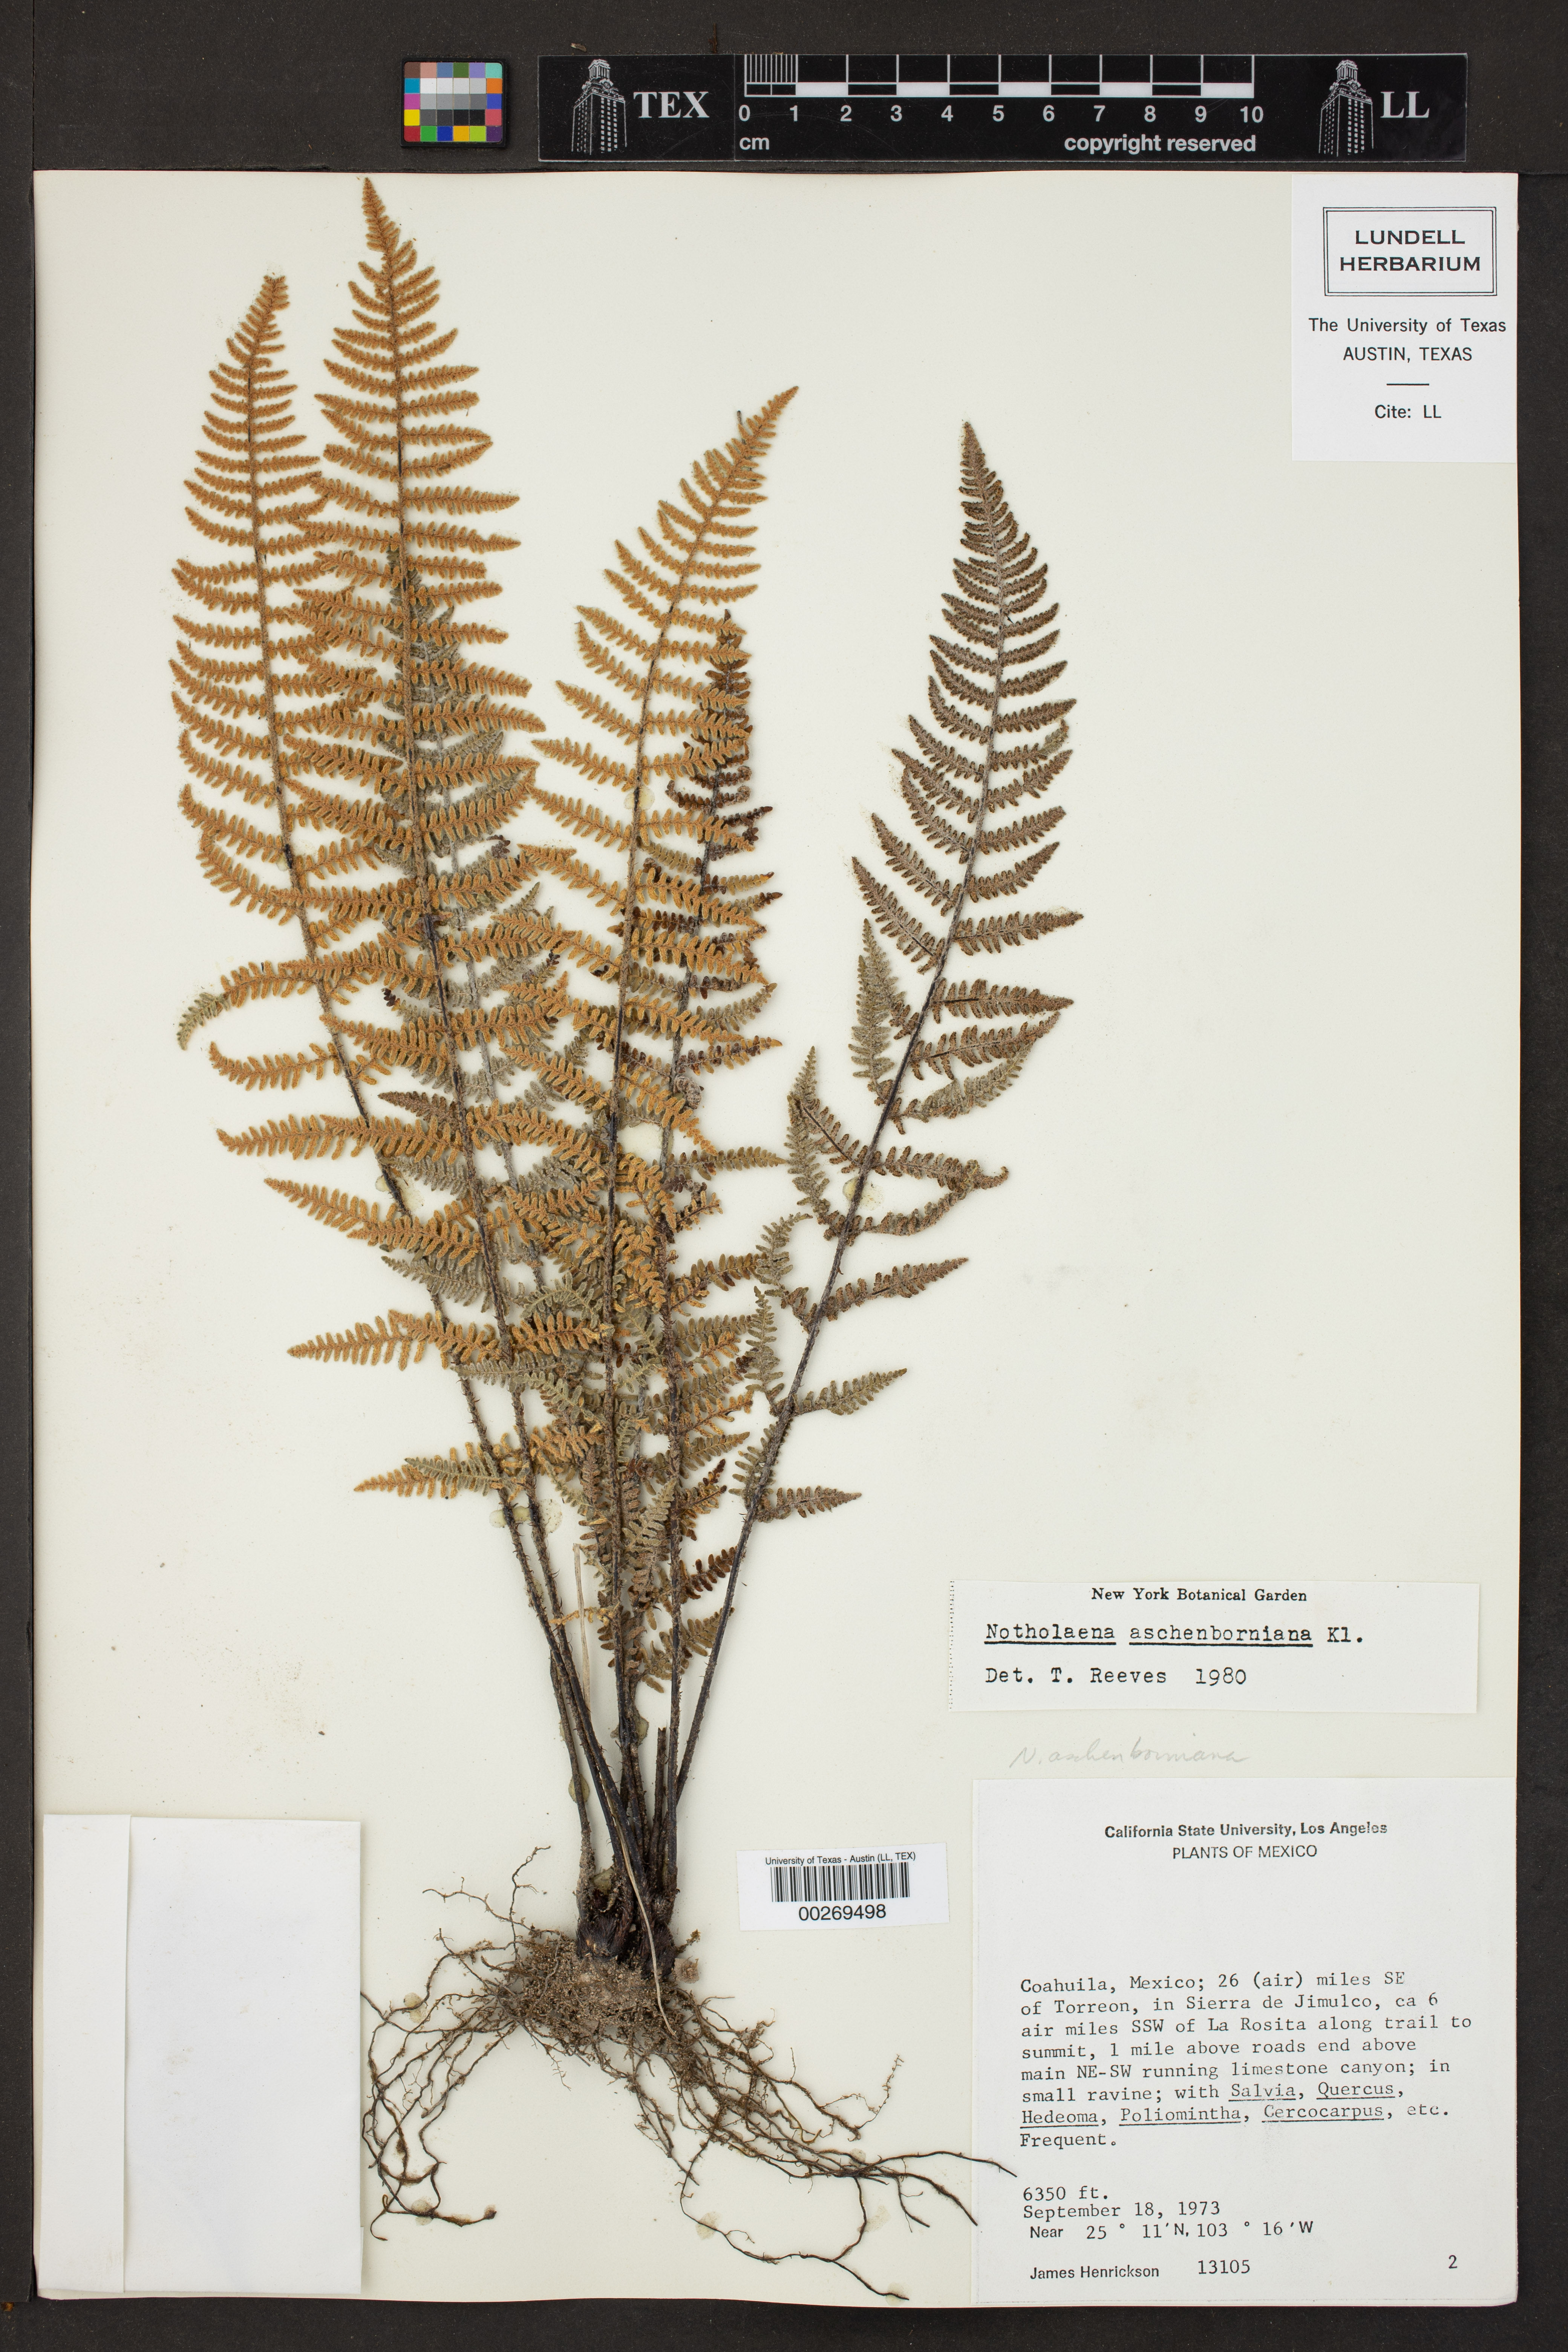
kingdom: Plantae
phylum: Tracheophyta
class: Polypodiopsida
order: Polypodiales
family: Pteridaceae
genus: Notholaena
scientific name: Notholaena aschenborniana
